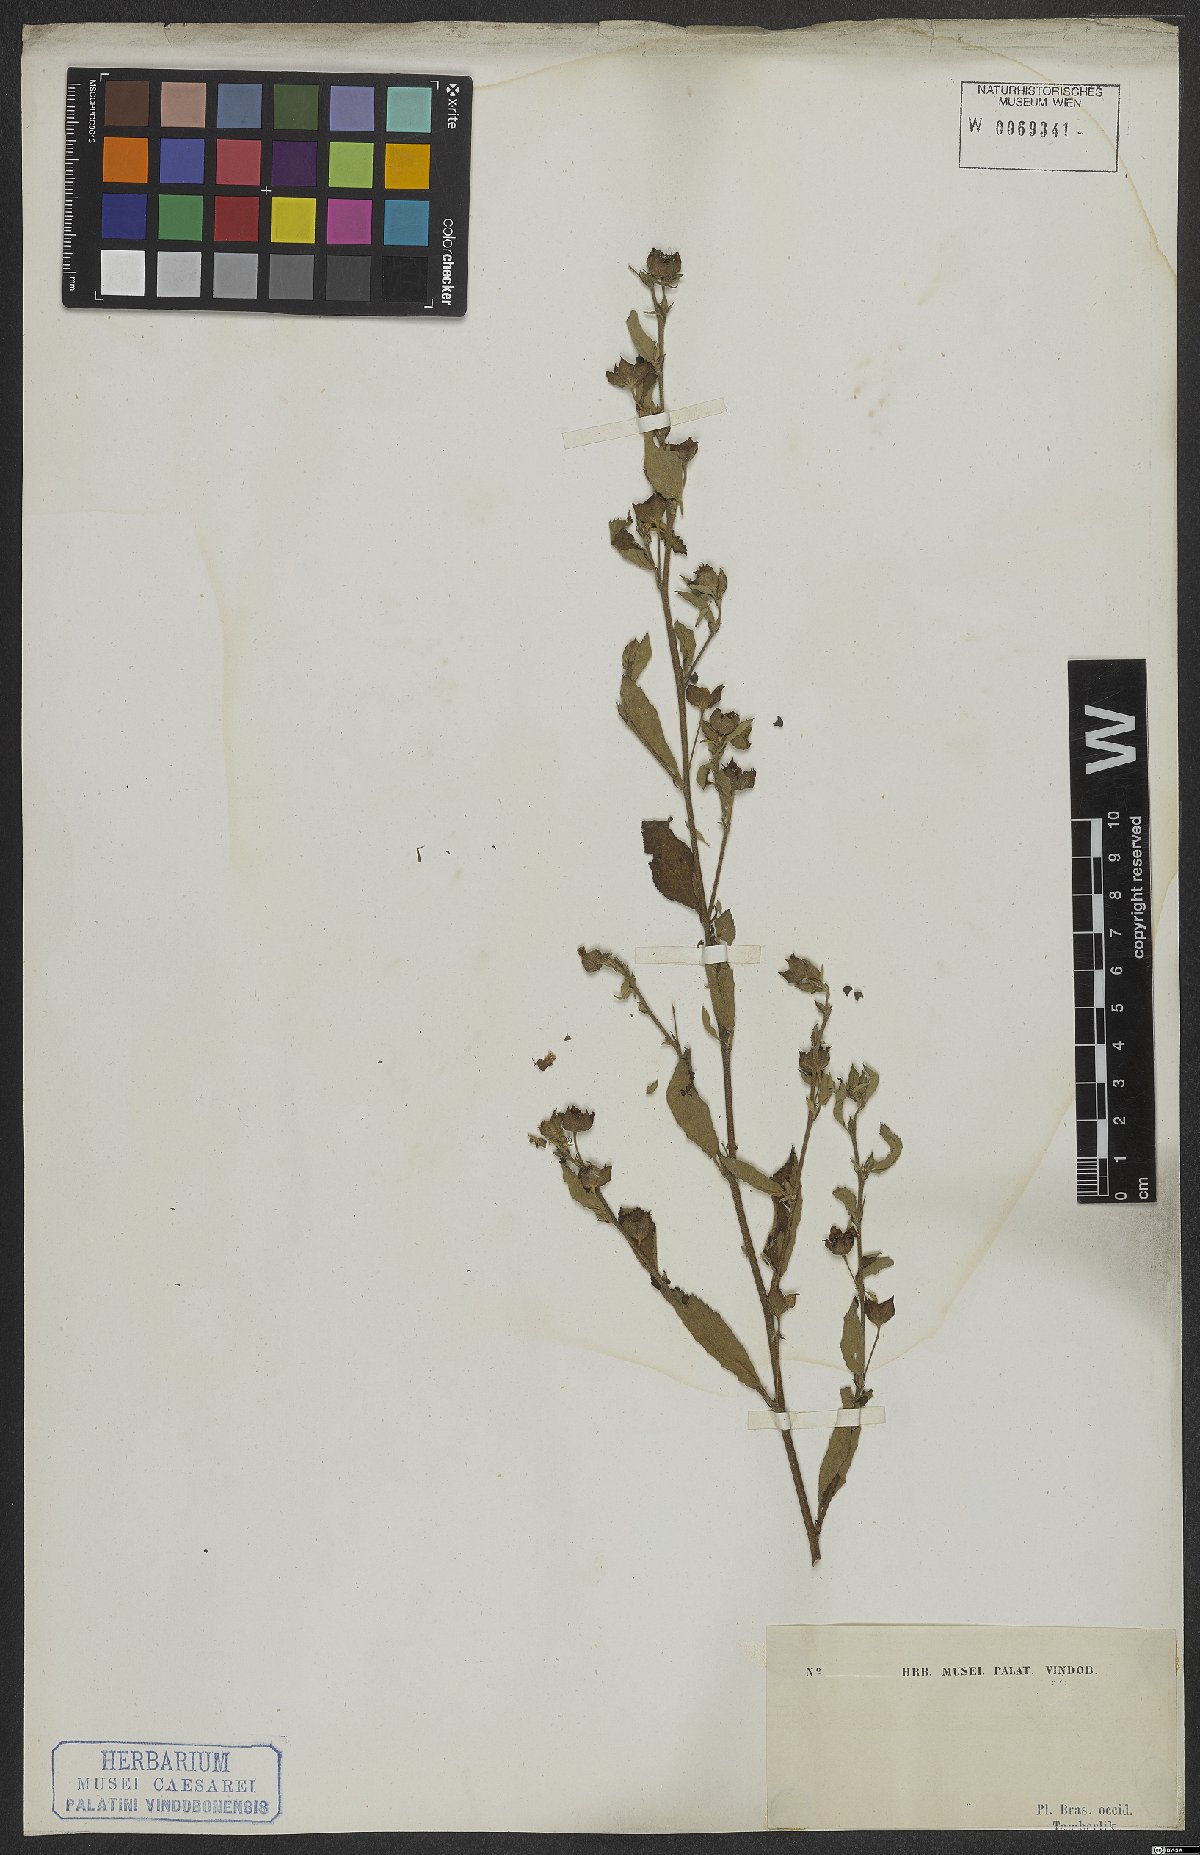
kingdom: Plantae
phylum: Tracheophyta
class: Magnoliopsida
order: Malvales
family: Malvaceae
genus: Sida
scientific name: Sida rhombifolia
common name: Queensland-hemp
